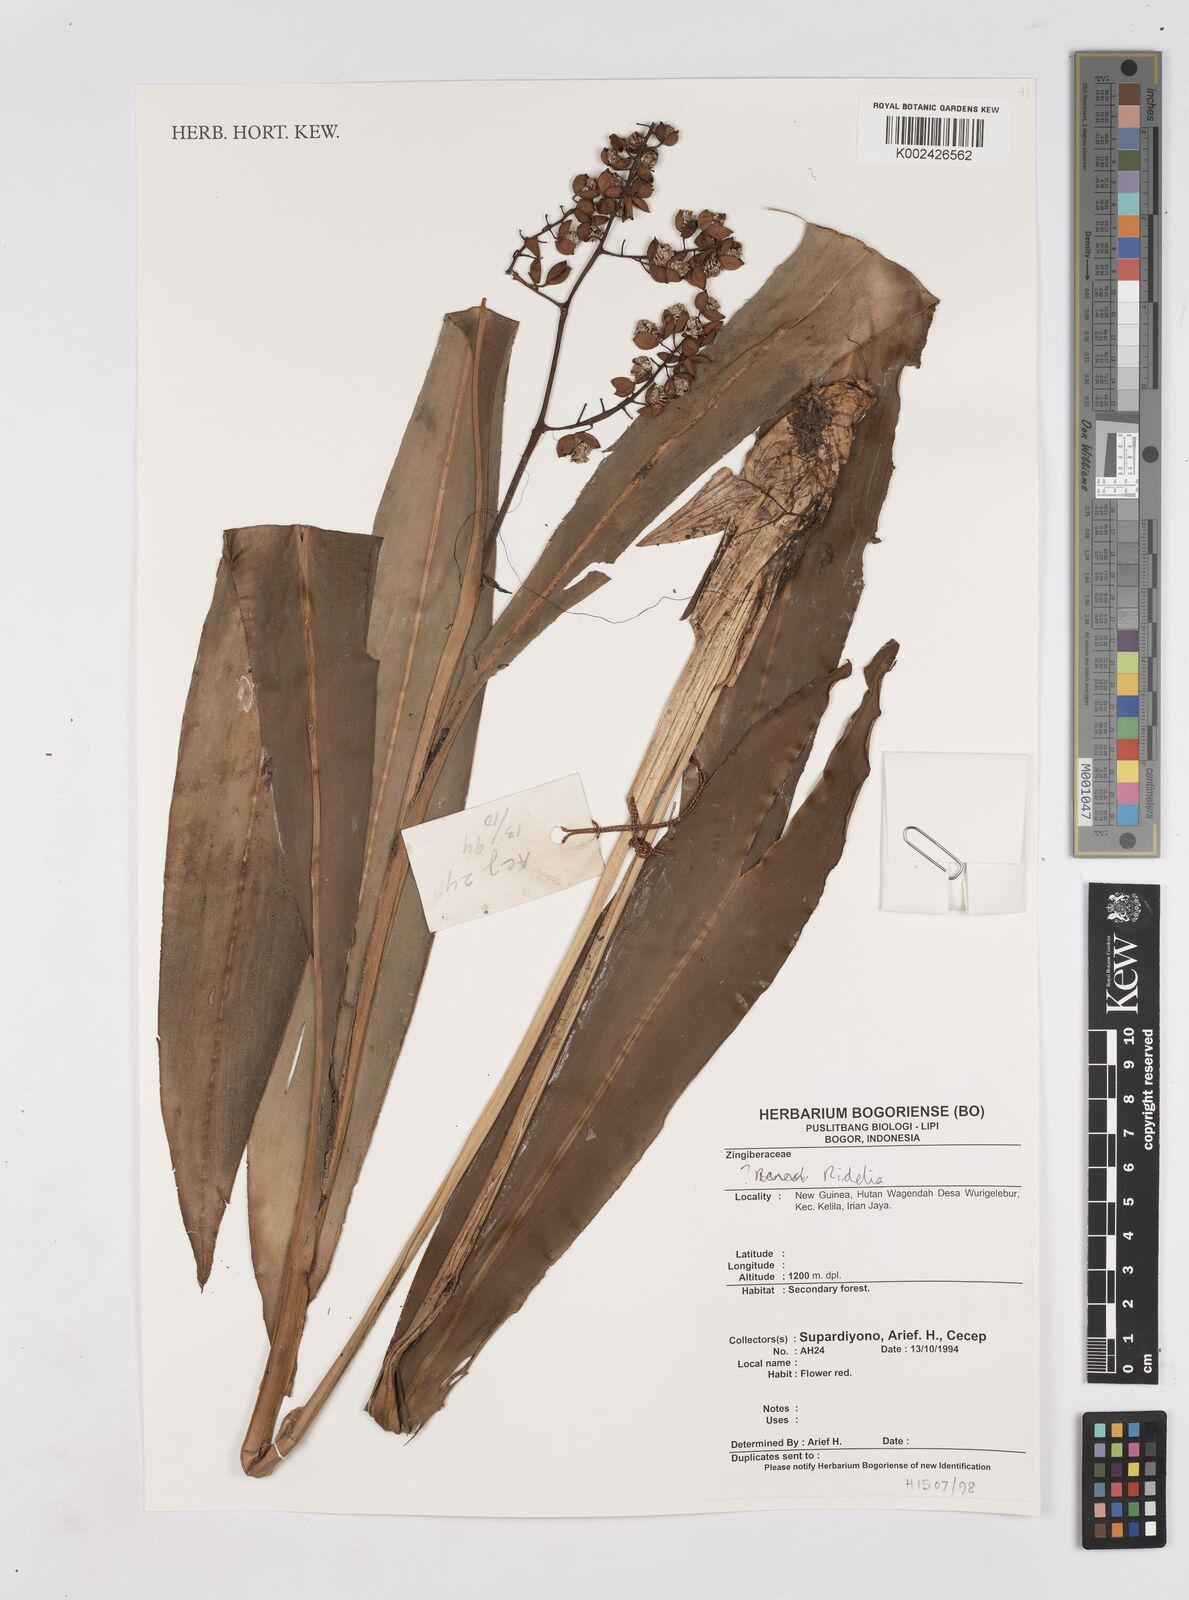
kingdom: Plantae
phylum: Tracheophyta
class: Liliopsida
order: Zingiberales
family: Zingiberaceae
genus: Riedelia
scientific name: Riedelia
